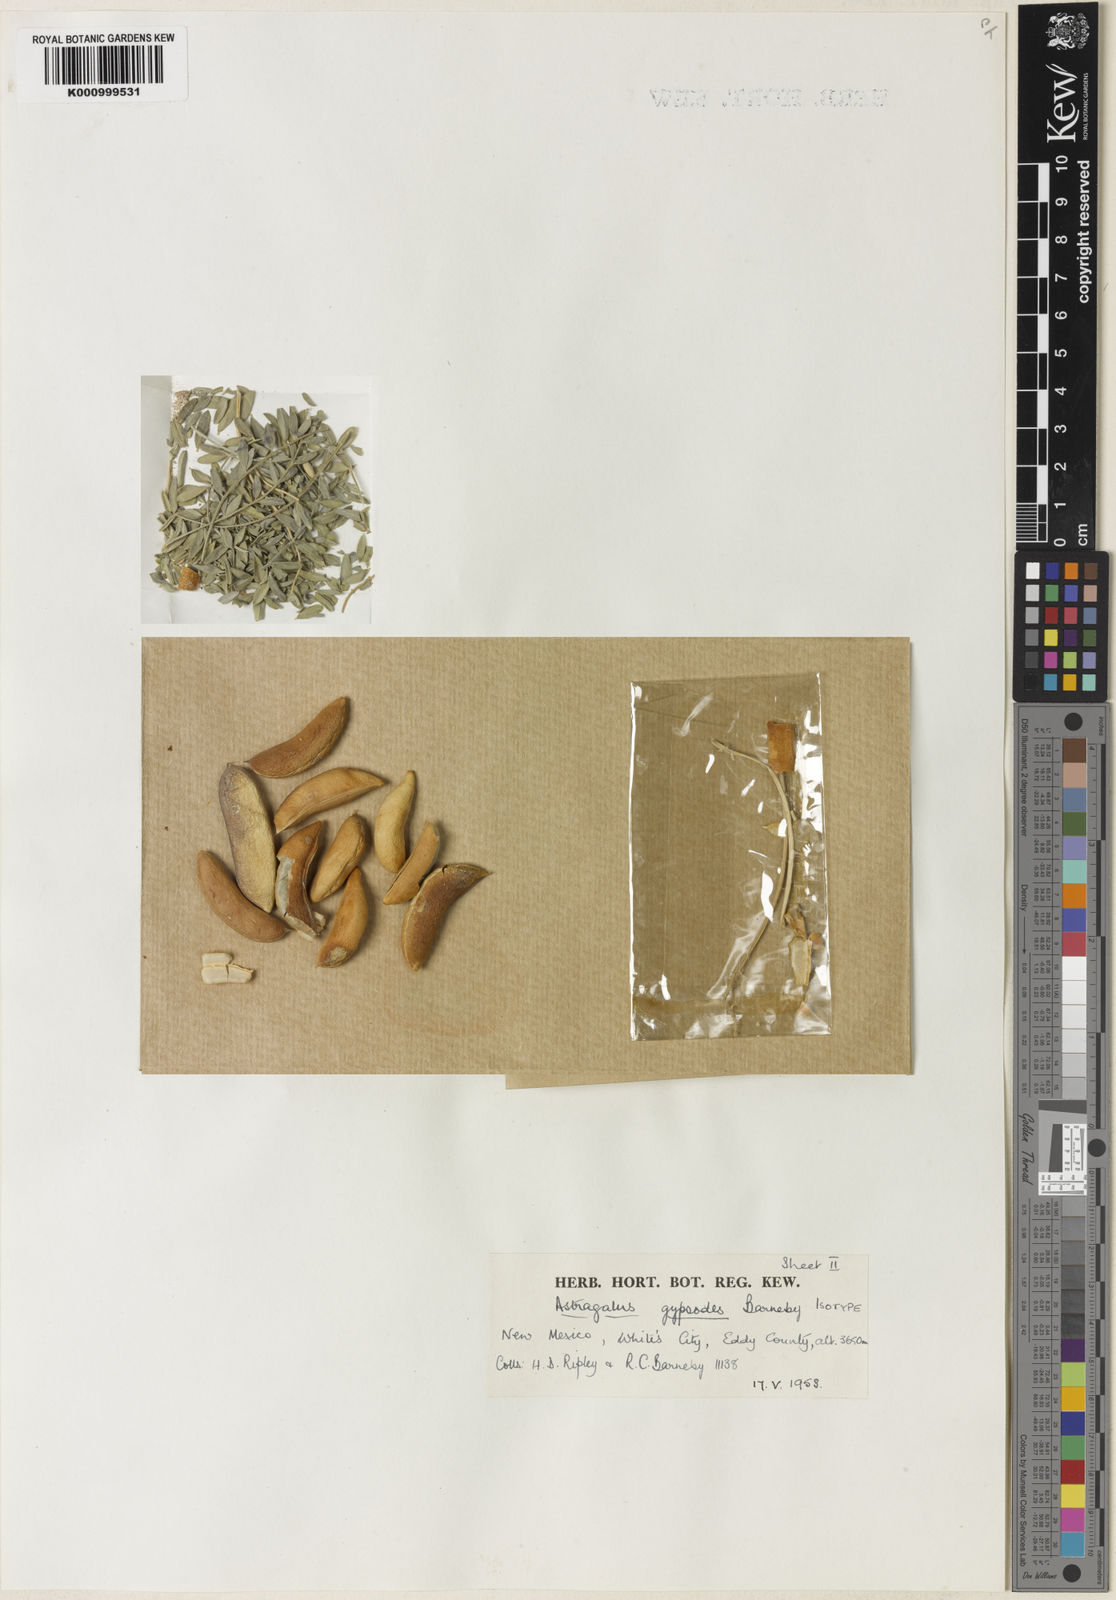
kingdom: Plantae
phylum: Tracheophyta
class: Magnoliopsida
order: Fabales
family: Fabaceae
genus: Astragalus
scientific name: Astragalus gypsodes
